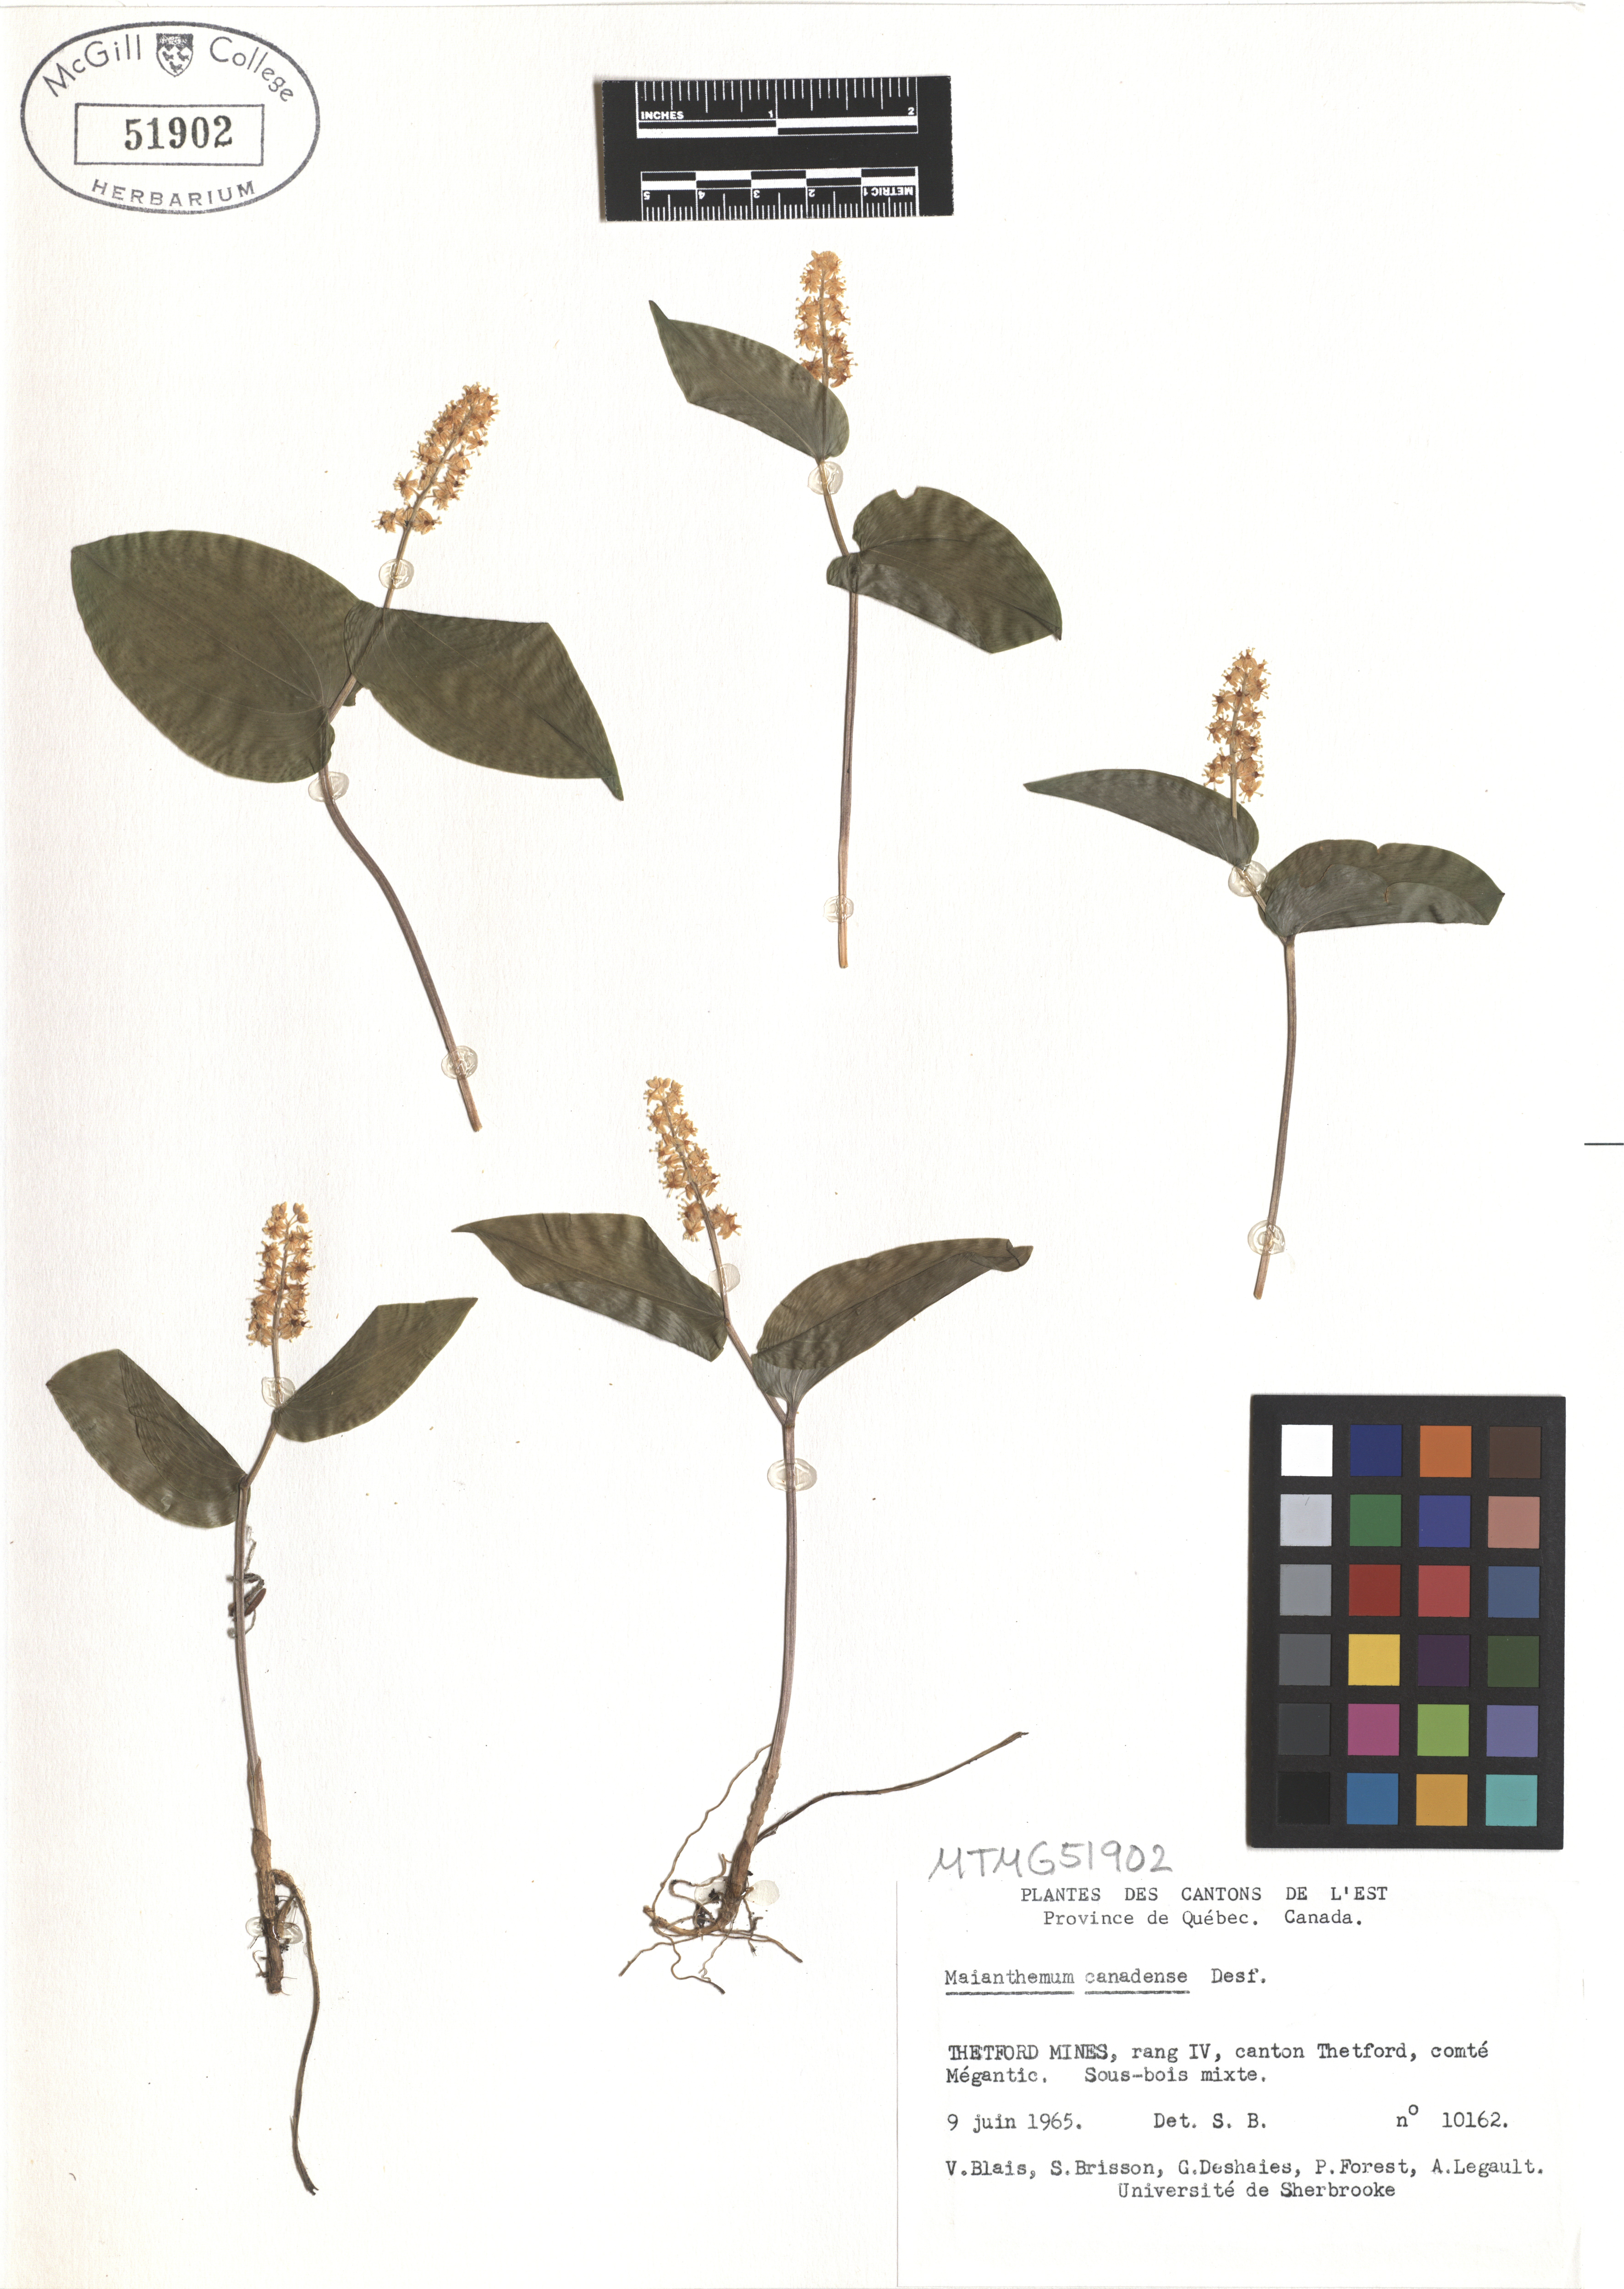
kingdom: Plantae
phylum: Tracheophyta
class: Liliopsida
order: Asparagales
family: Asparagaceae
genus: Maianthemum
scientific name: Maianthemum canadense
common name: False lily-of-the-valley
